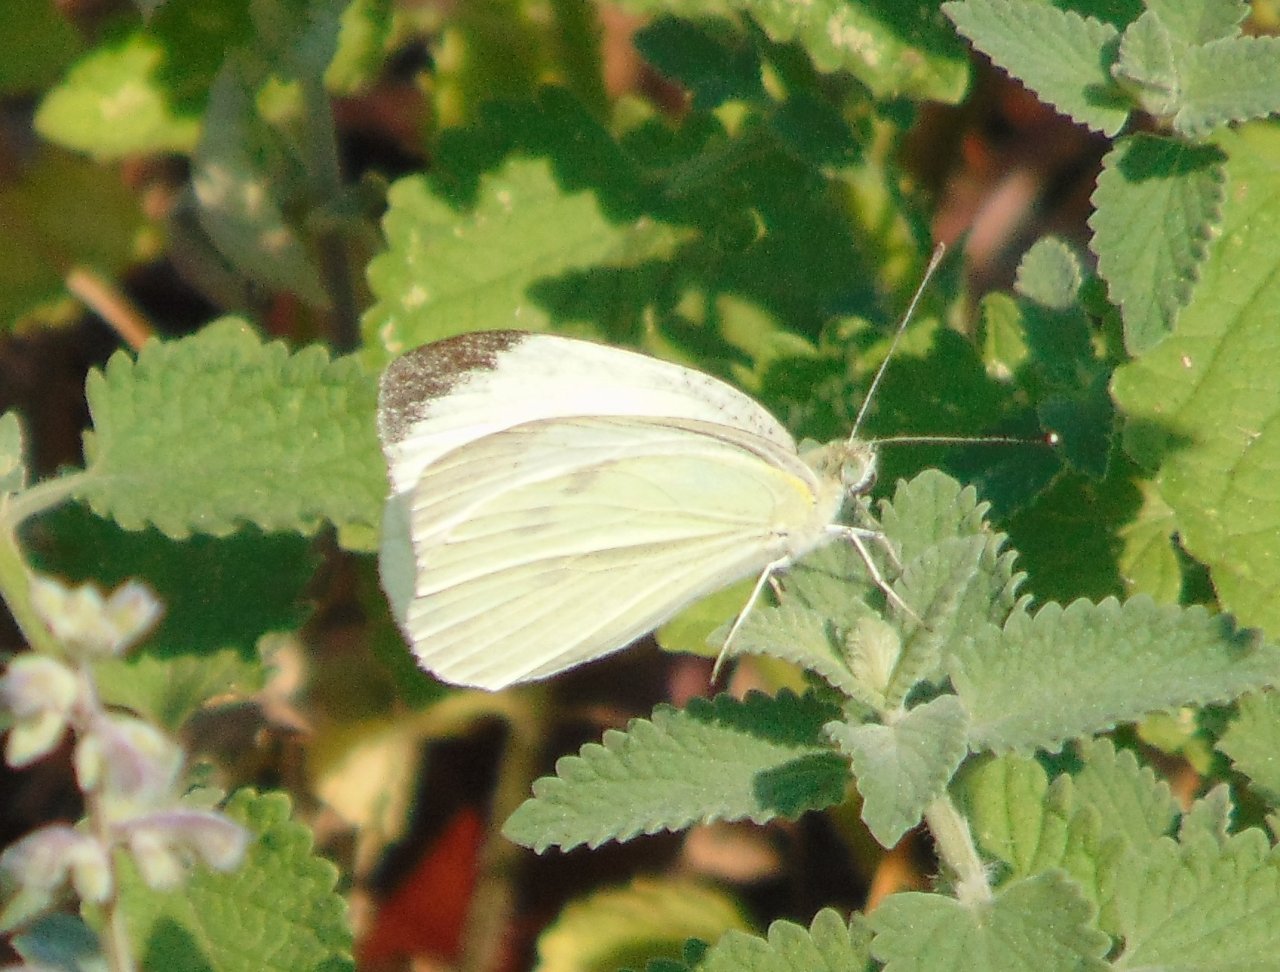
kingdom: Animalia
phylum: Arthropoda
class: Insecta
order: Lepidoptera
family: Pieridae
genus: Pieris
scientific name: Pieris rapae
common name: Cabbage White
